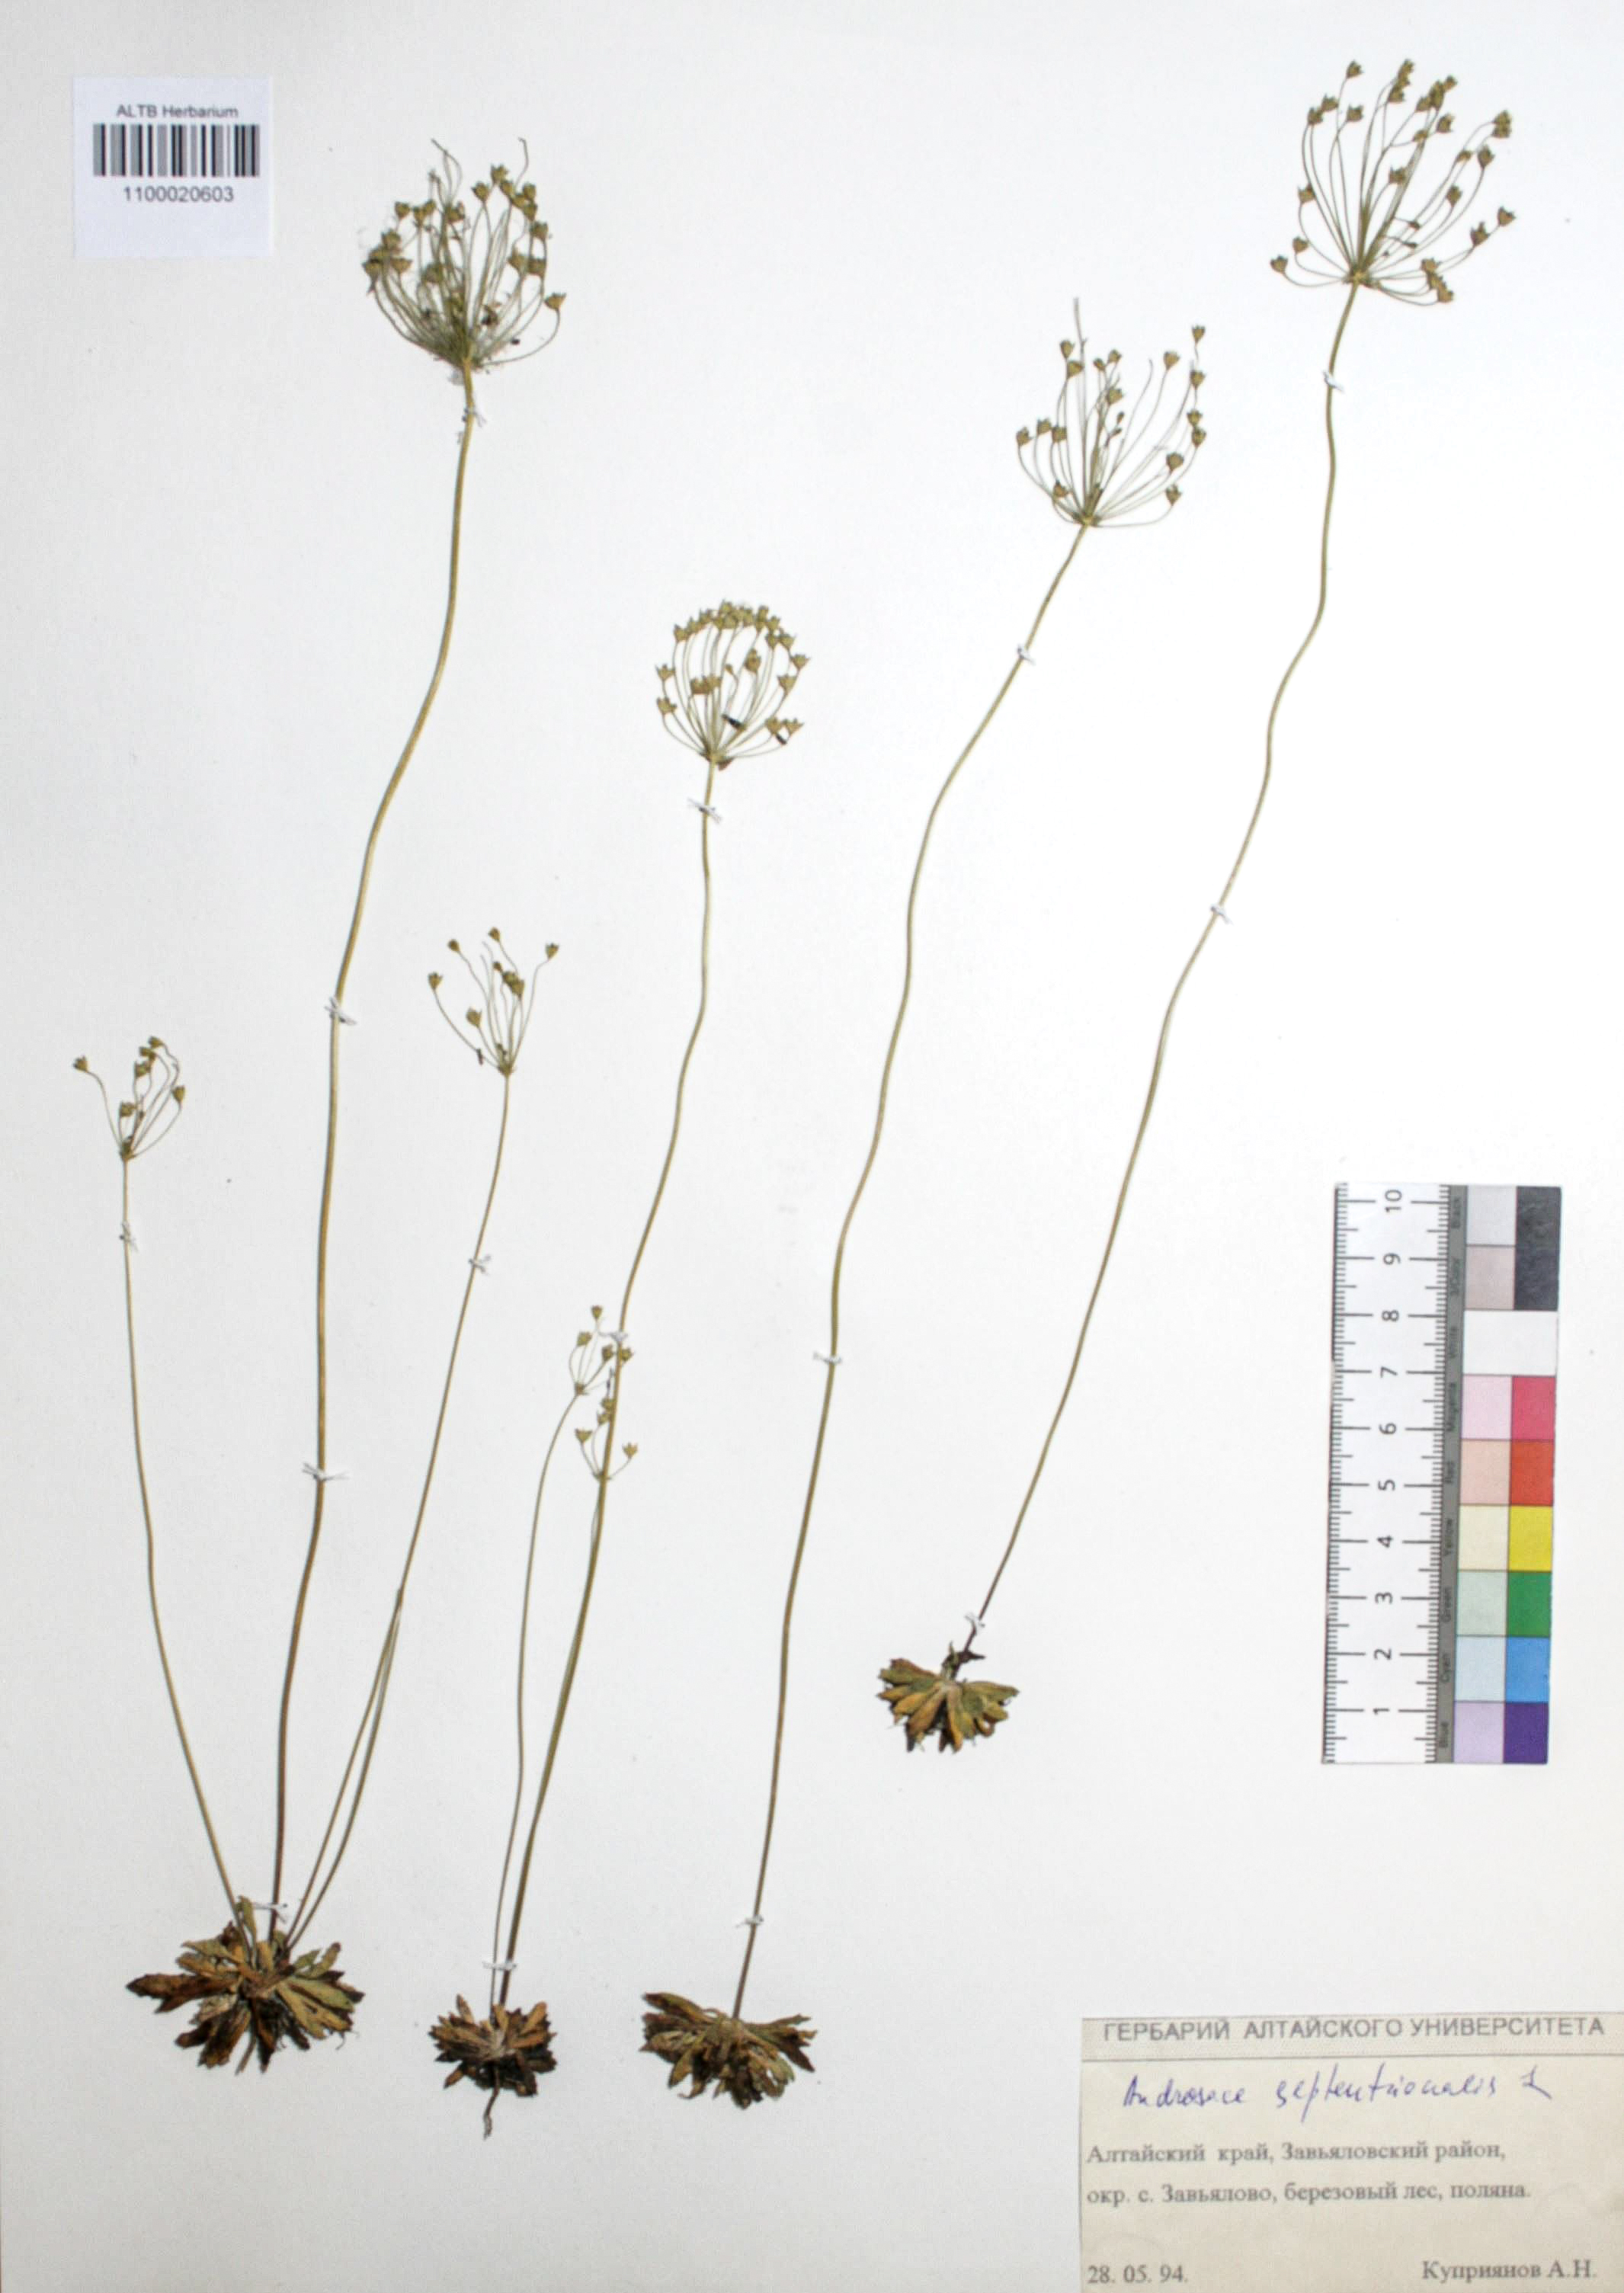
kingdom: Plantae
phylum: Tracheophyta
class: Magnoliopsida
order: Ericales
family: Primulaceae
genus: Androsace
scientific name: Androsace septentrionalis
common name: Hairy northern fairy-candelabra
